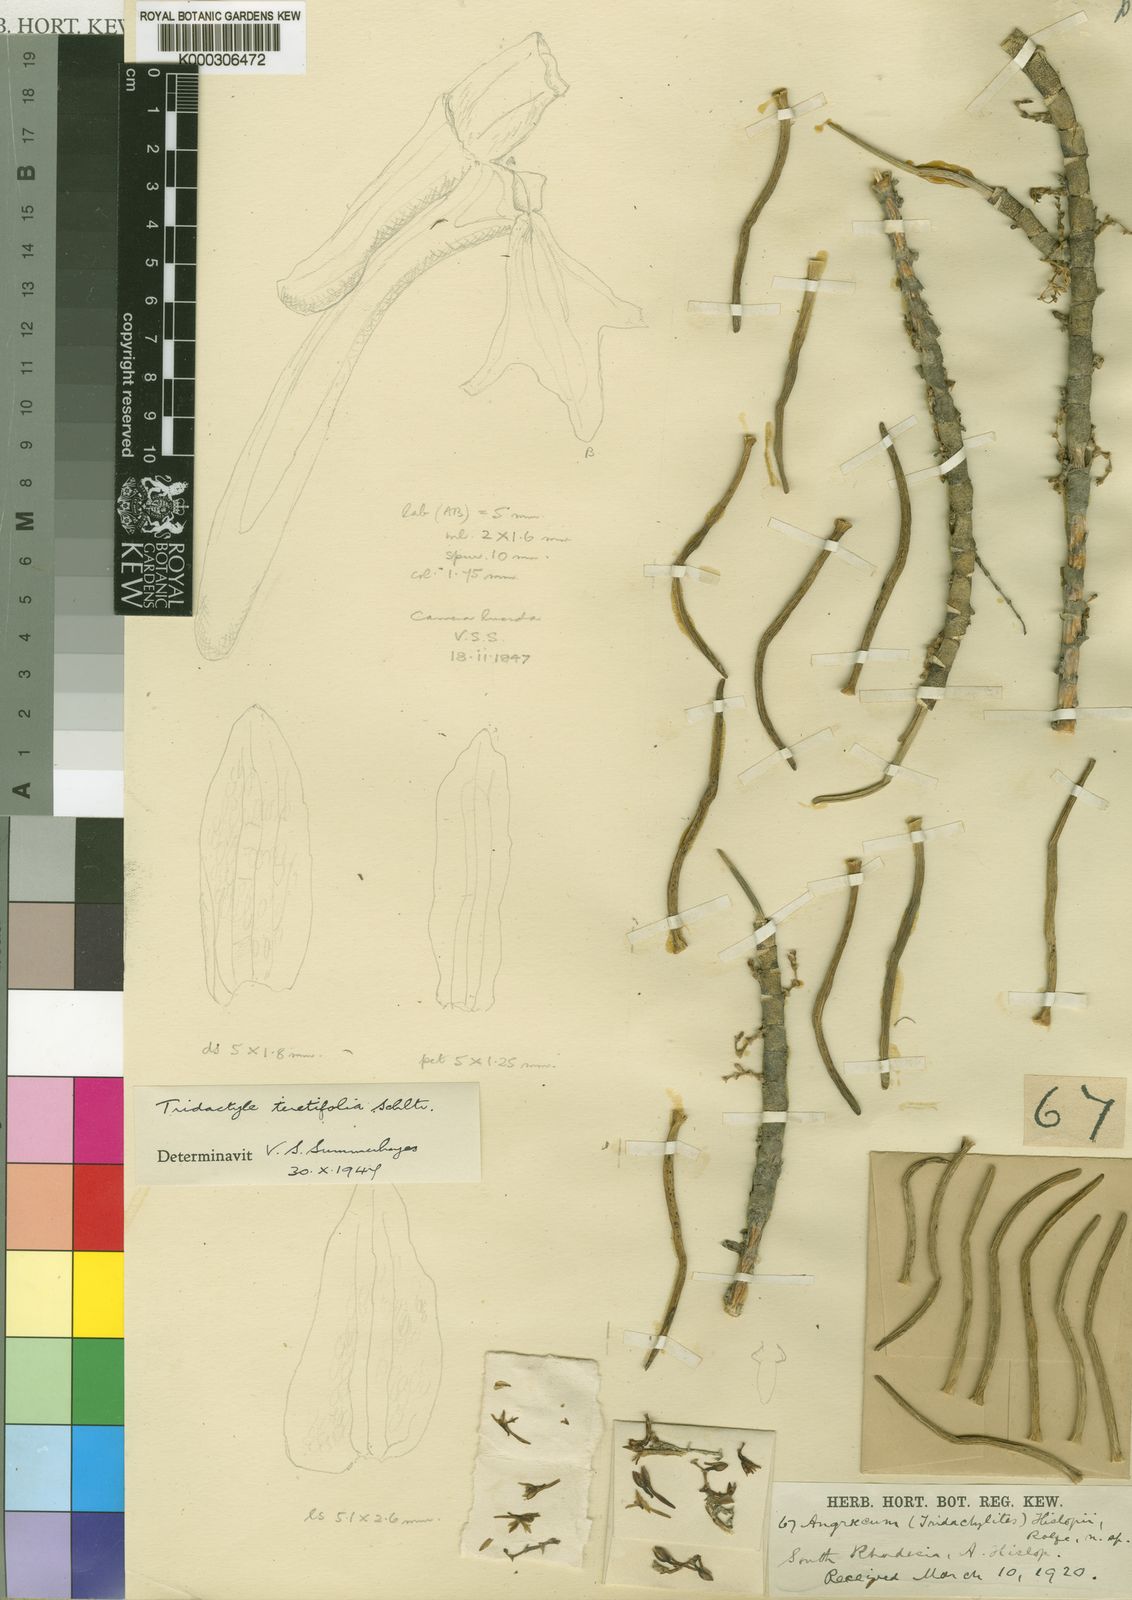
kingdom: Plantae
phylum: Tracheophyta
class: Liliopsida
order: Asparagales
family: Orchidaceae
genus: Tridactyle
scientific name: Tridactyle teretifolia
